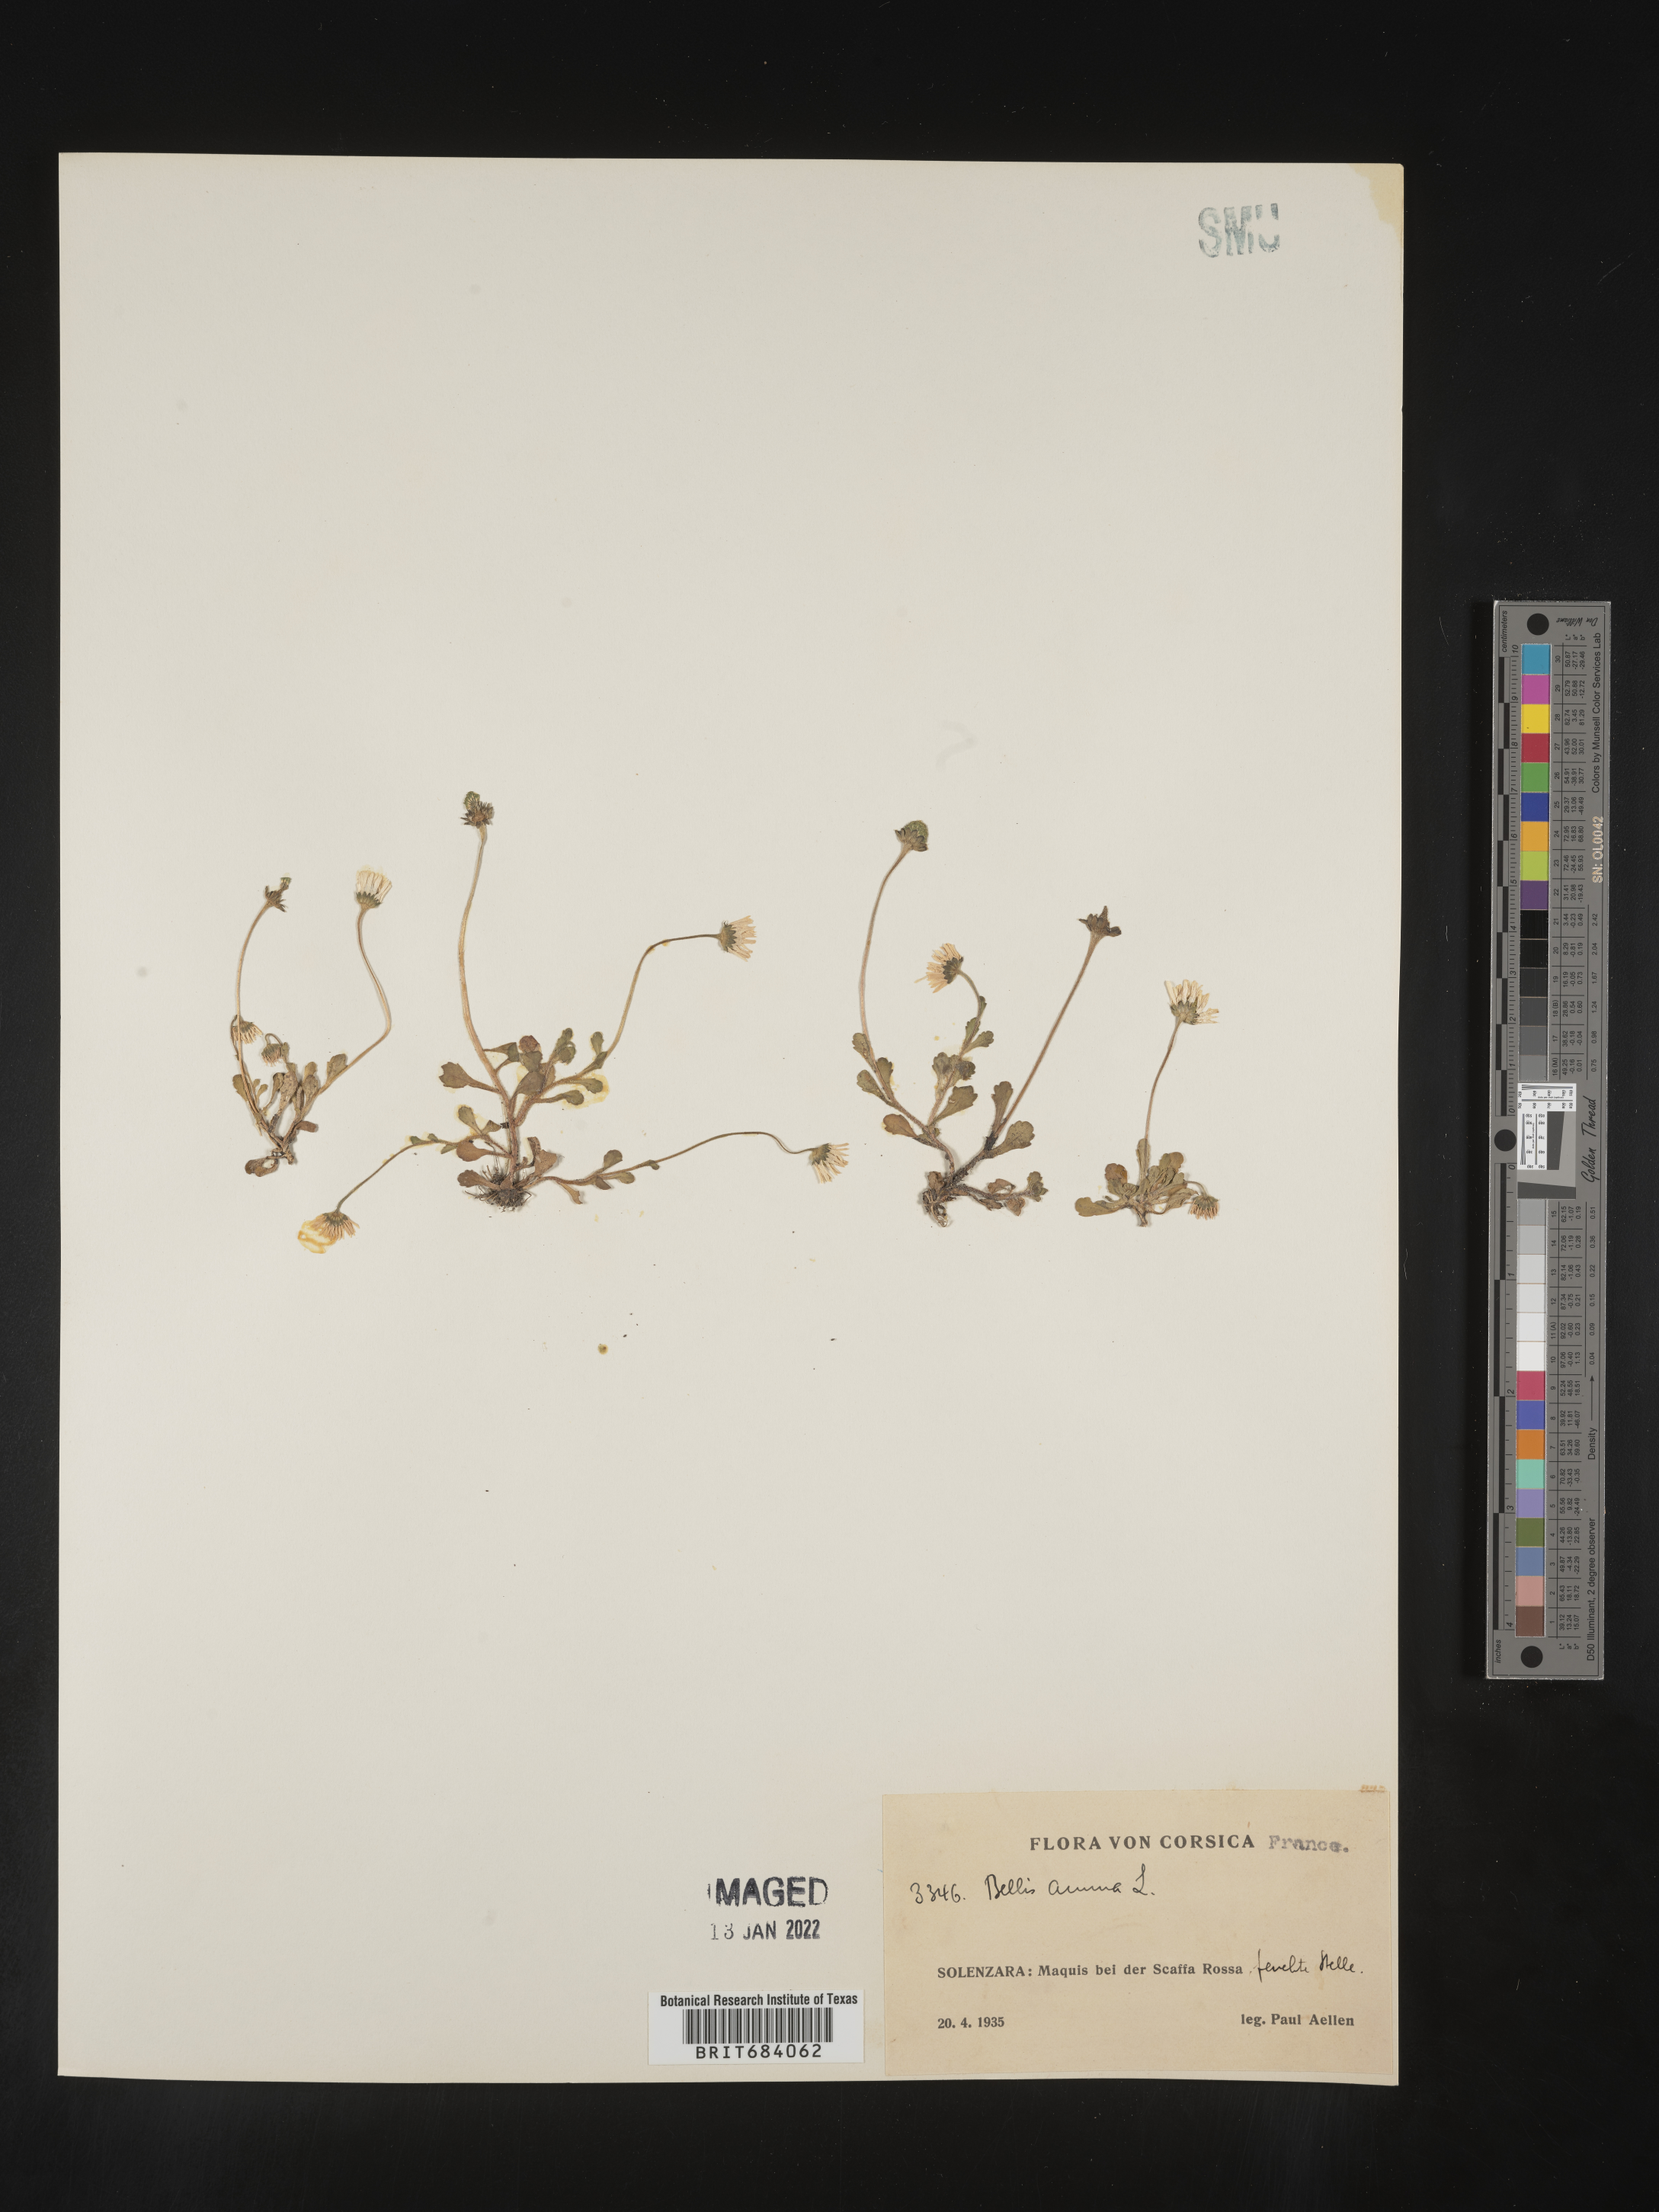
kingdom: Plantae
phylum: Tracheophyta
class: Magnoliopsida
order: Asterales
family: Asteraceae
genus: Bellis
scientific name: Bellis
